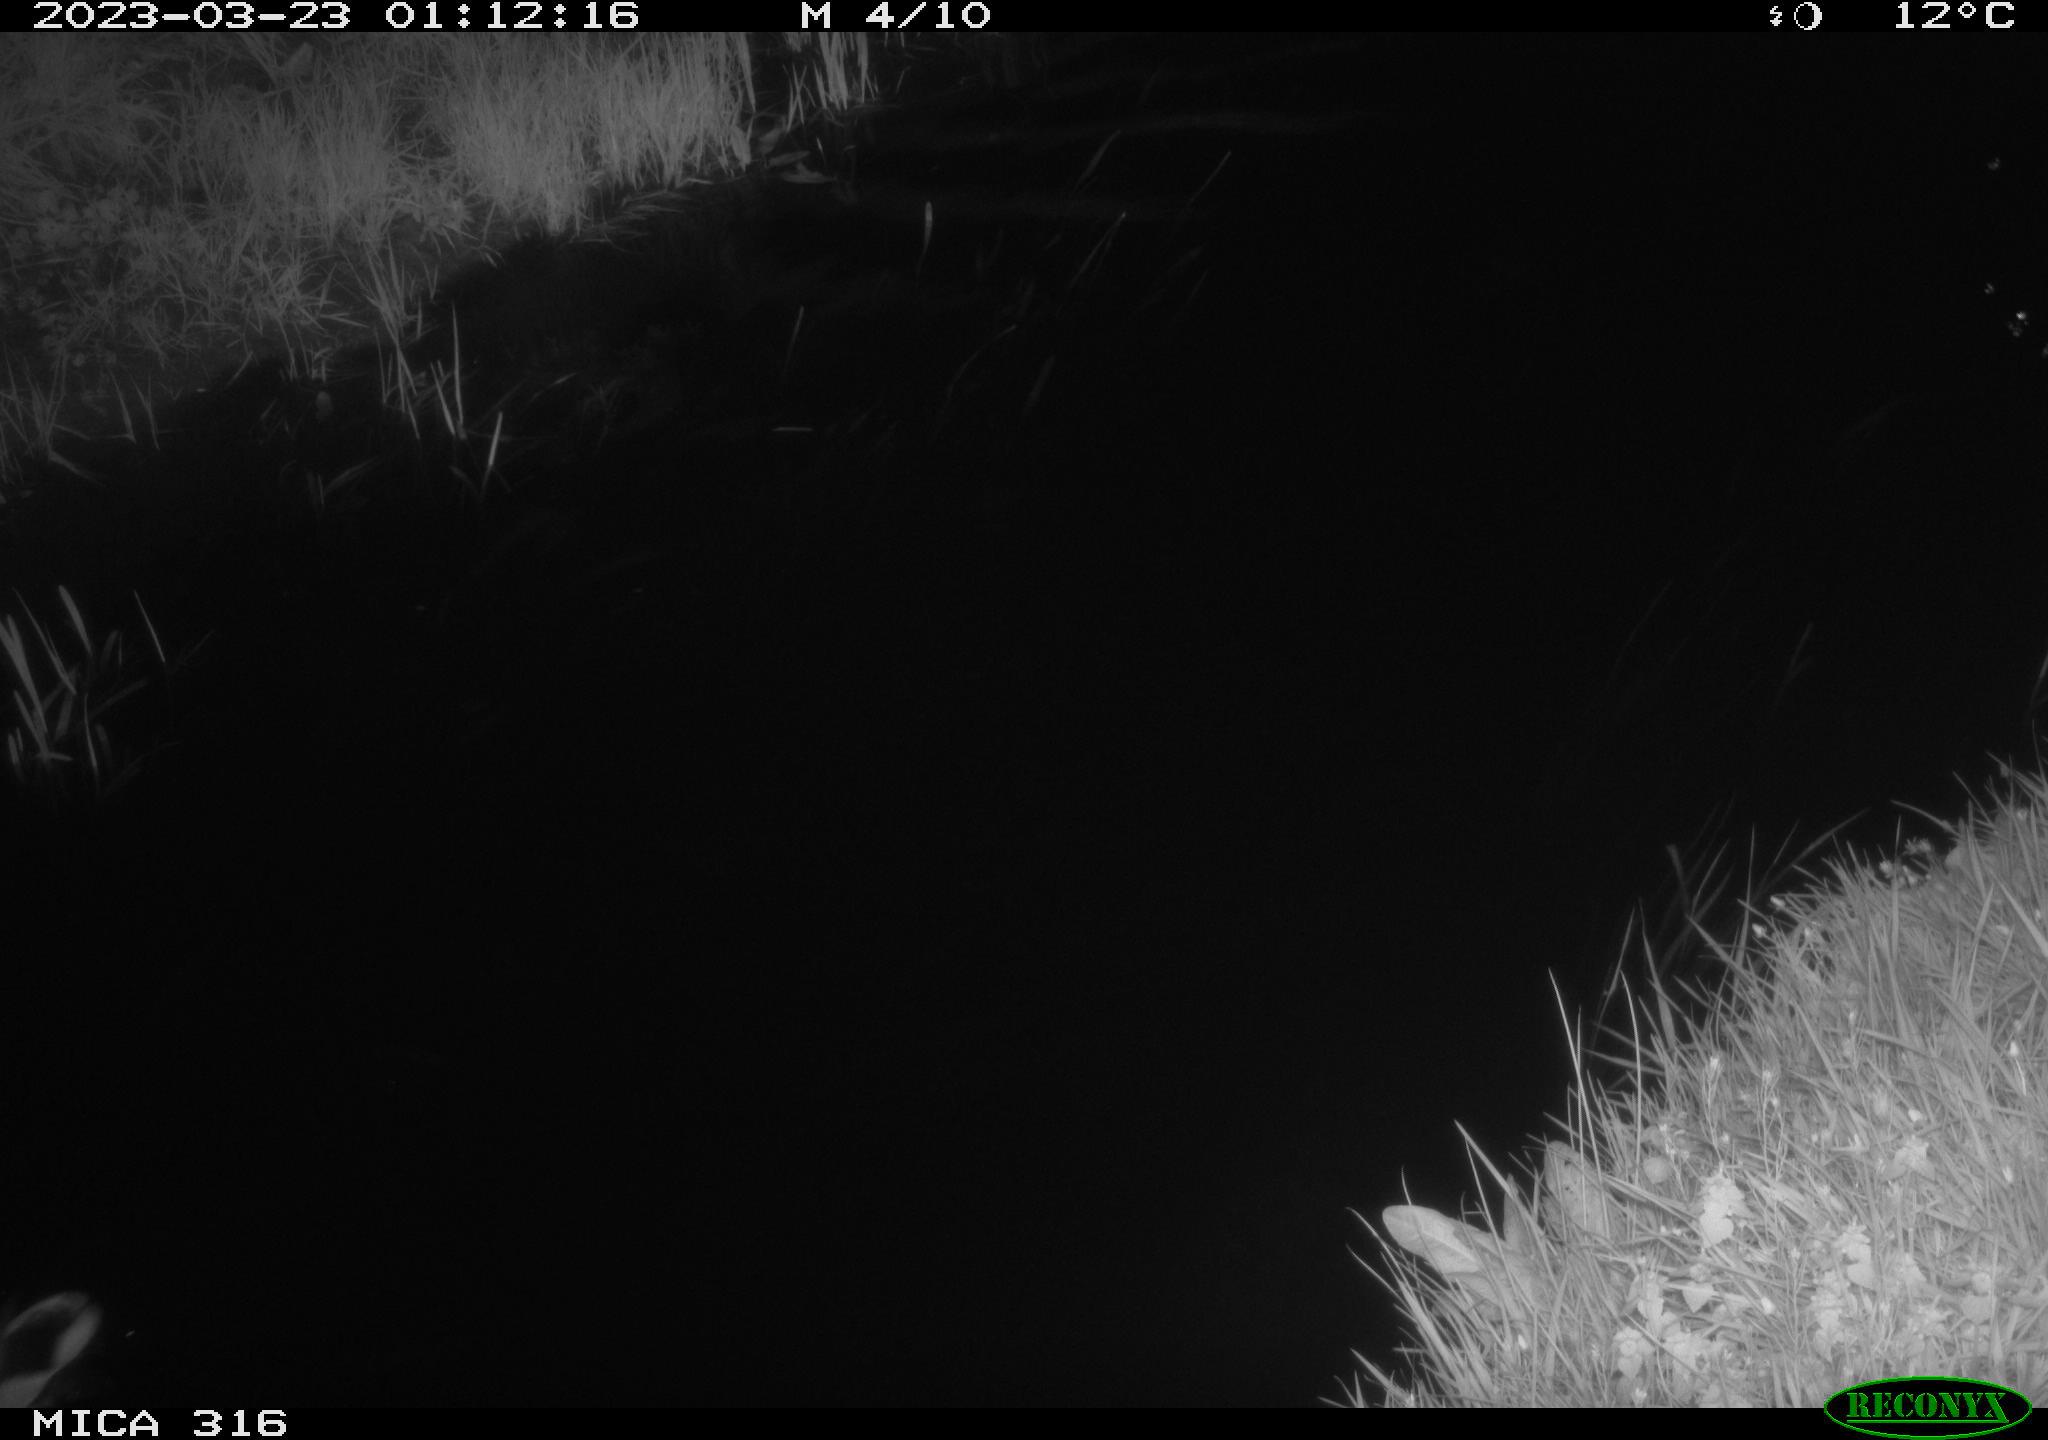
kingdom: Animalia
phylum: Chordata
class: Aves
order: Anseriformes
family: Anatidae
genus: Anas
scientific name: Anas
